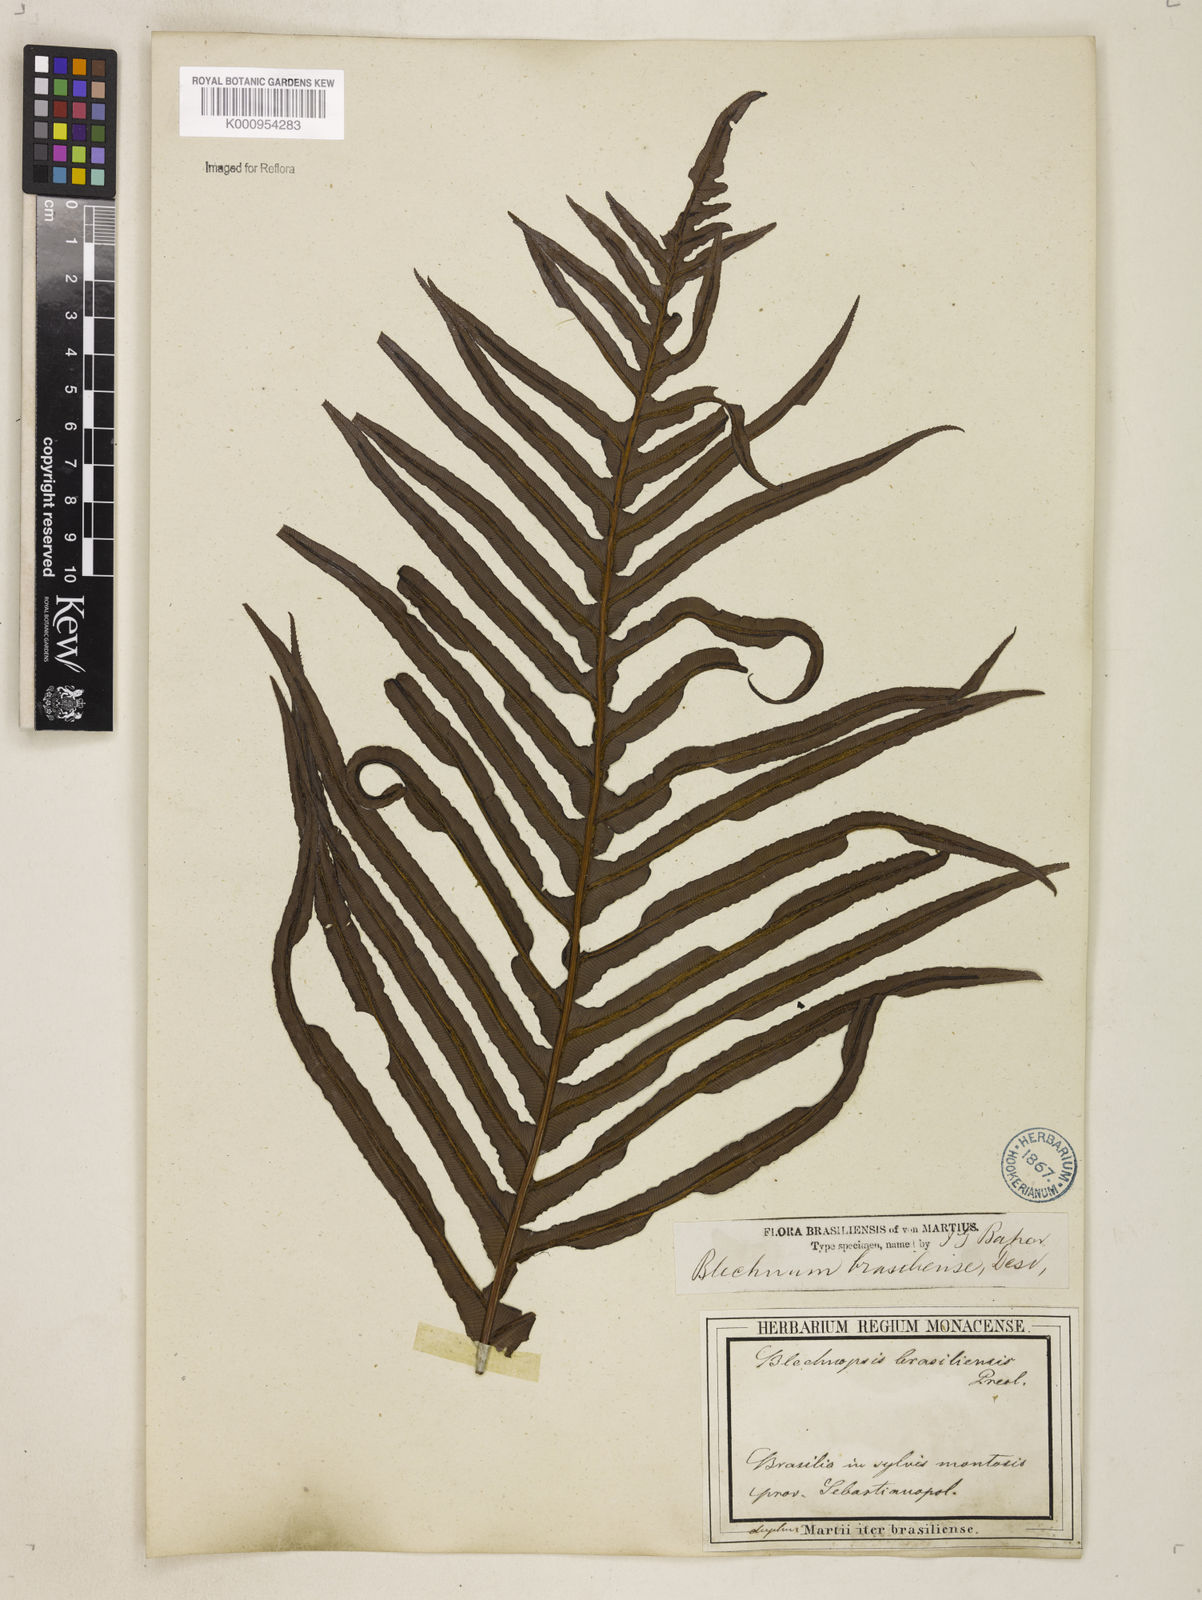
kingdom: Plantae
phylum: Tracheophyta
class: Polypodiopsida
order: Polypodiales
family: Blechnaceae
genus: Neoblechnum
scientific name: Neoblechnum brasiliense
